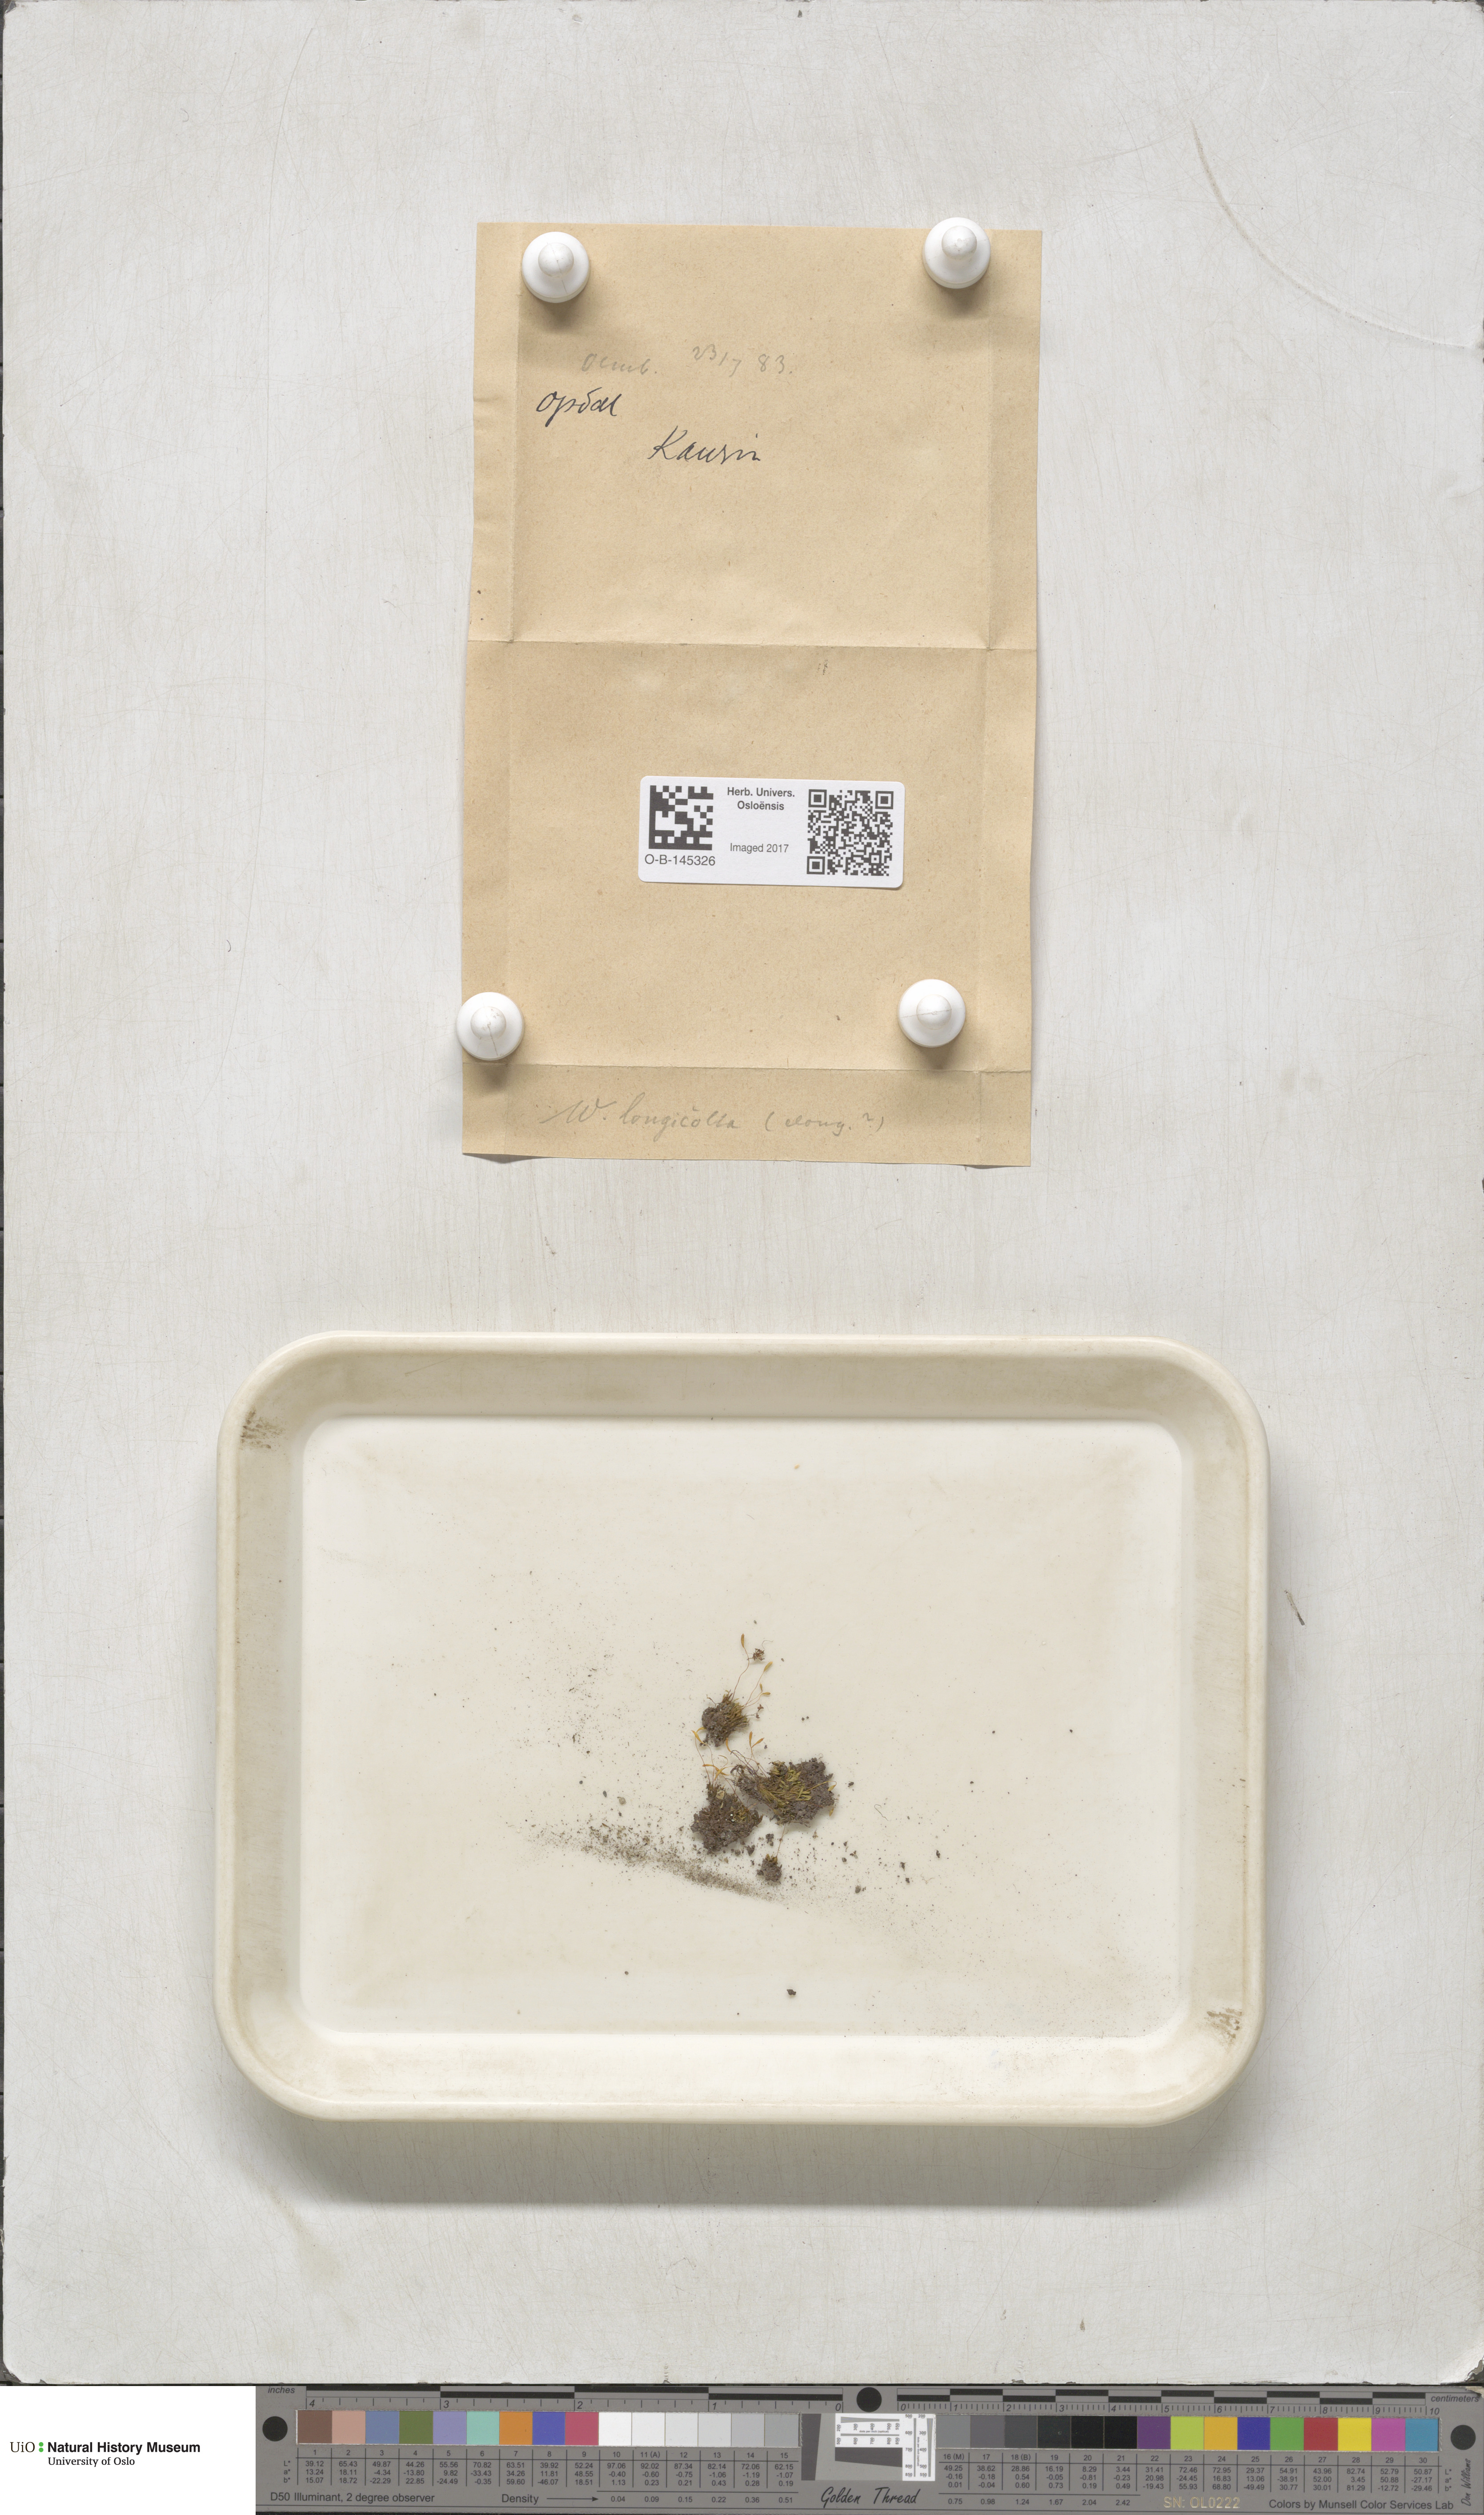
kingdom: Plantae
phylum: Bryophyta
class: Bryopsida
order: Bryales
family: Mniaceae
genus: Pohlia
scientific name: Pohlia longicolla
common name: Long-necked nodding moss
